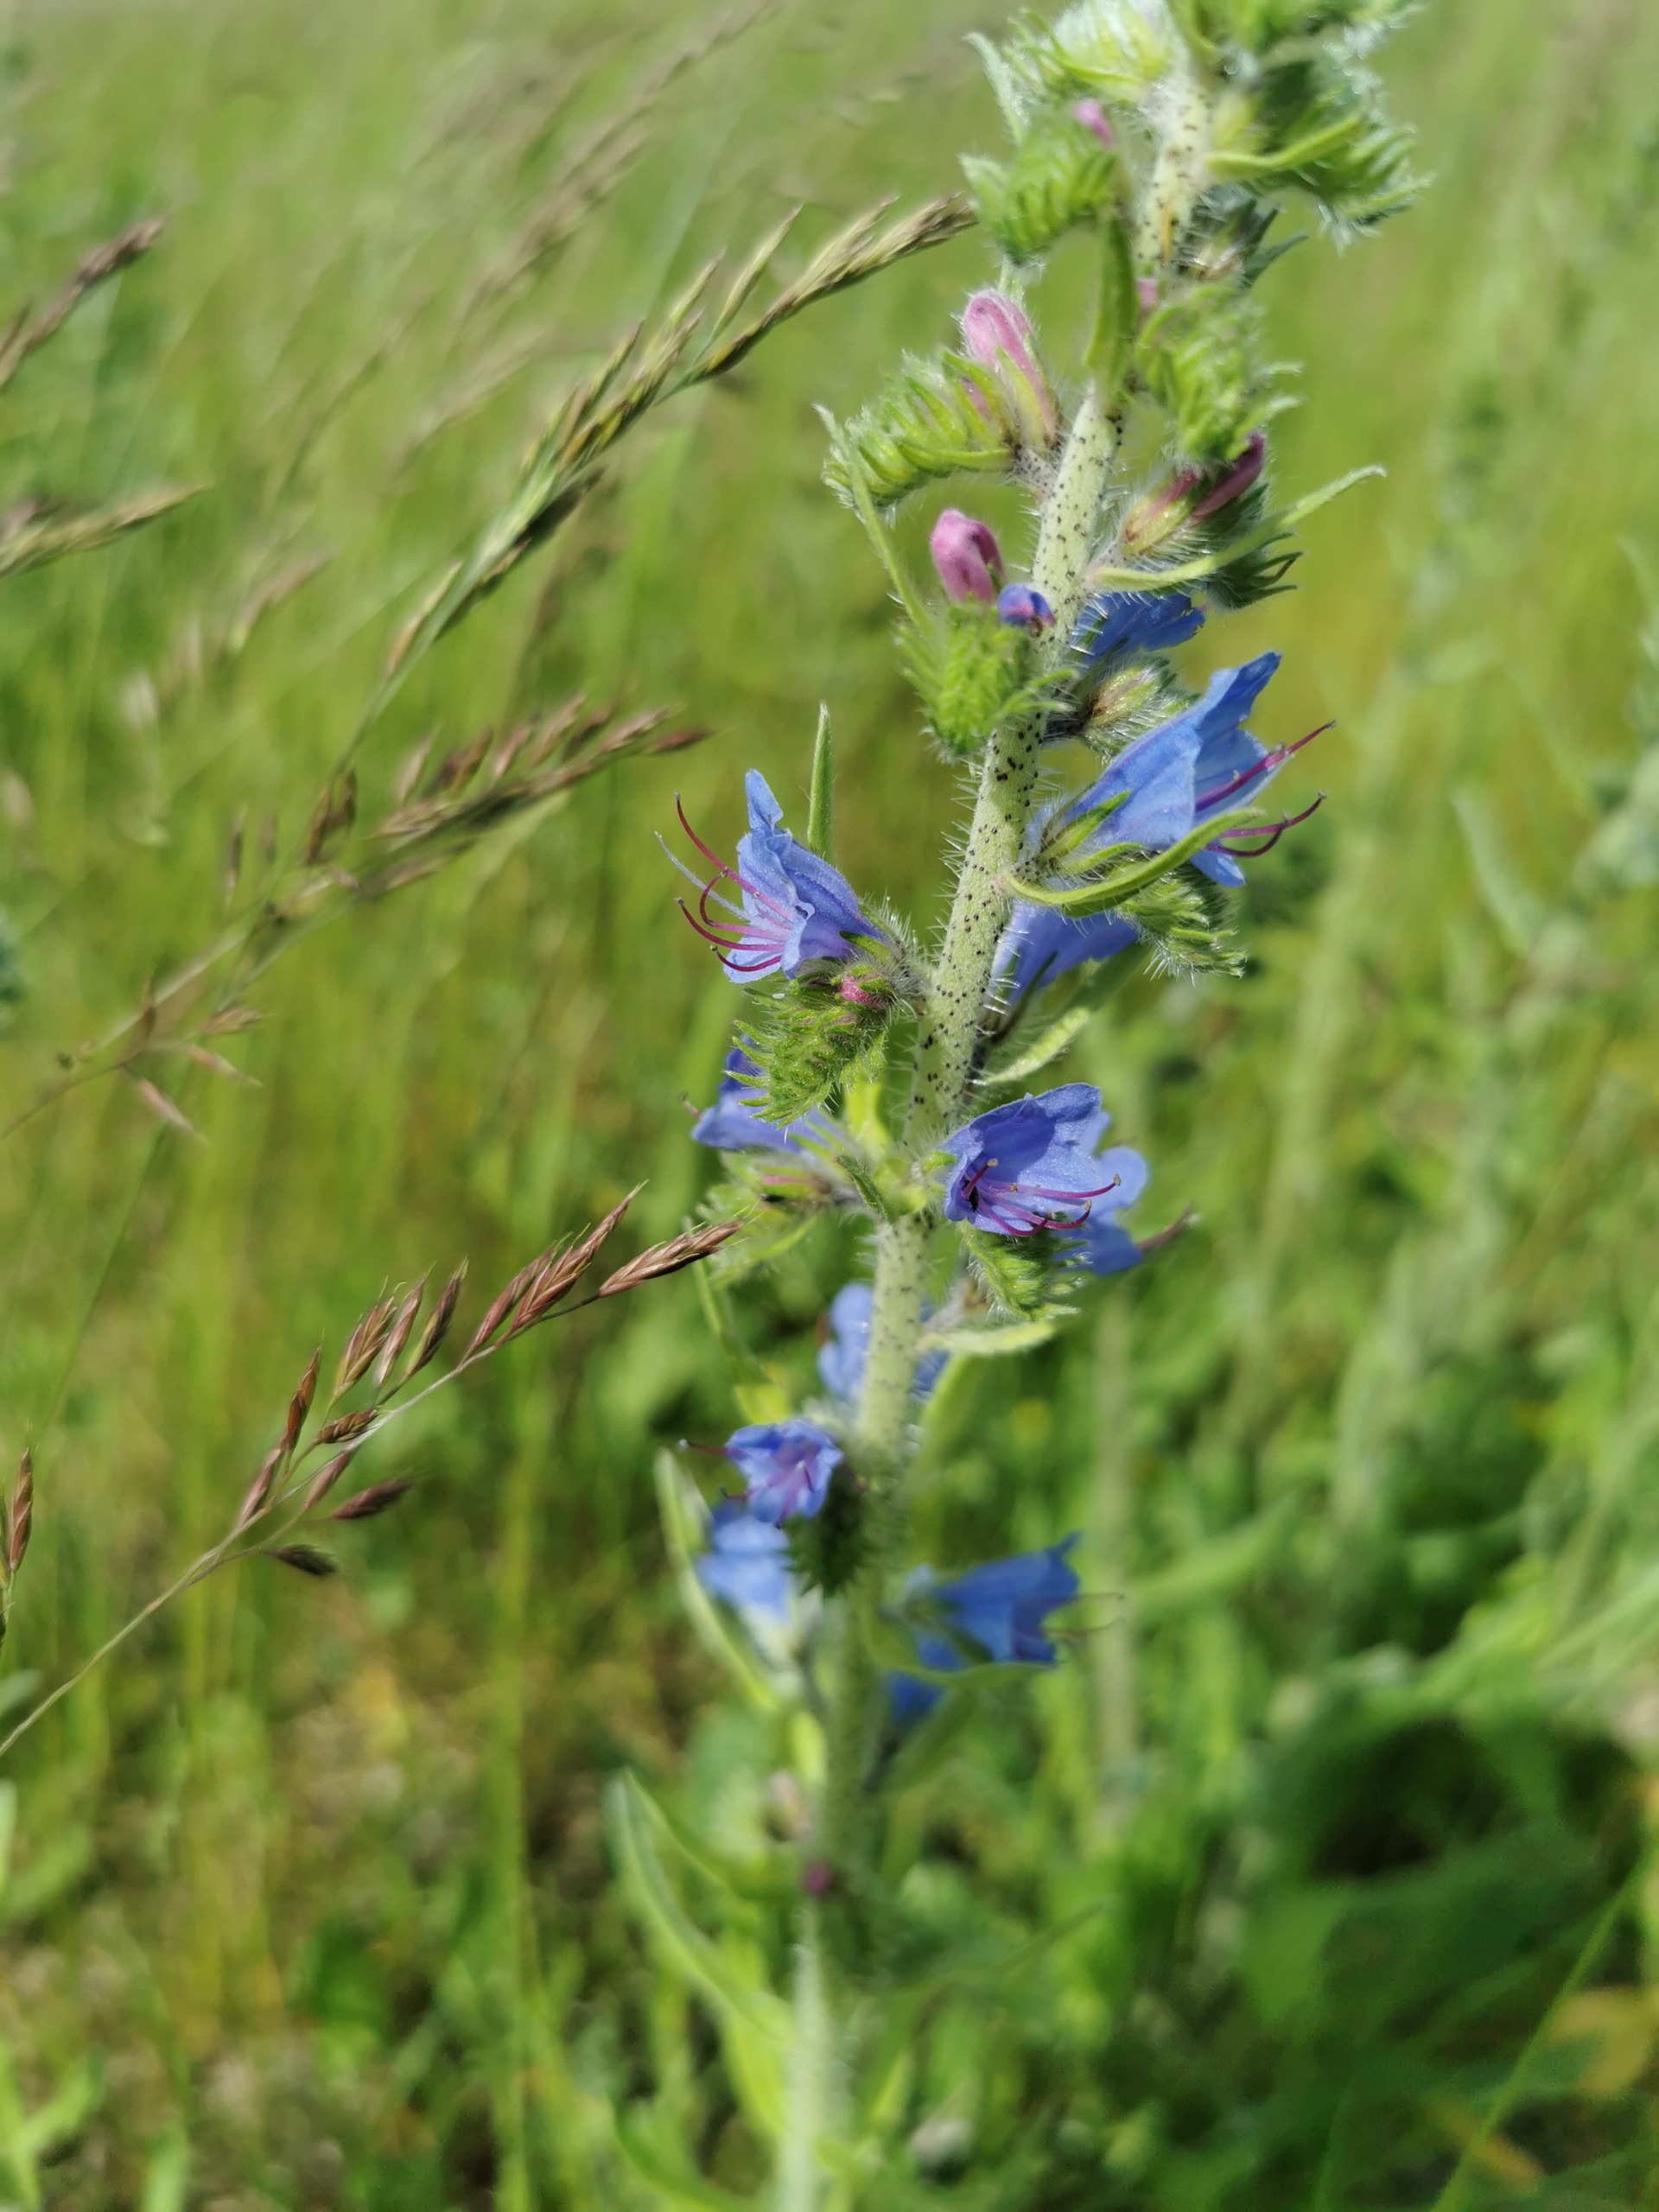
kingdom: Plantae
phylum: Tracheophyta
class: Magnoliopsida
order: Boraginales
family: Boraginaceae
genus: Echium
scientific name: Echium vulgare
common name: Slangehoved
